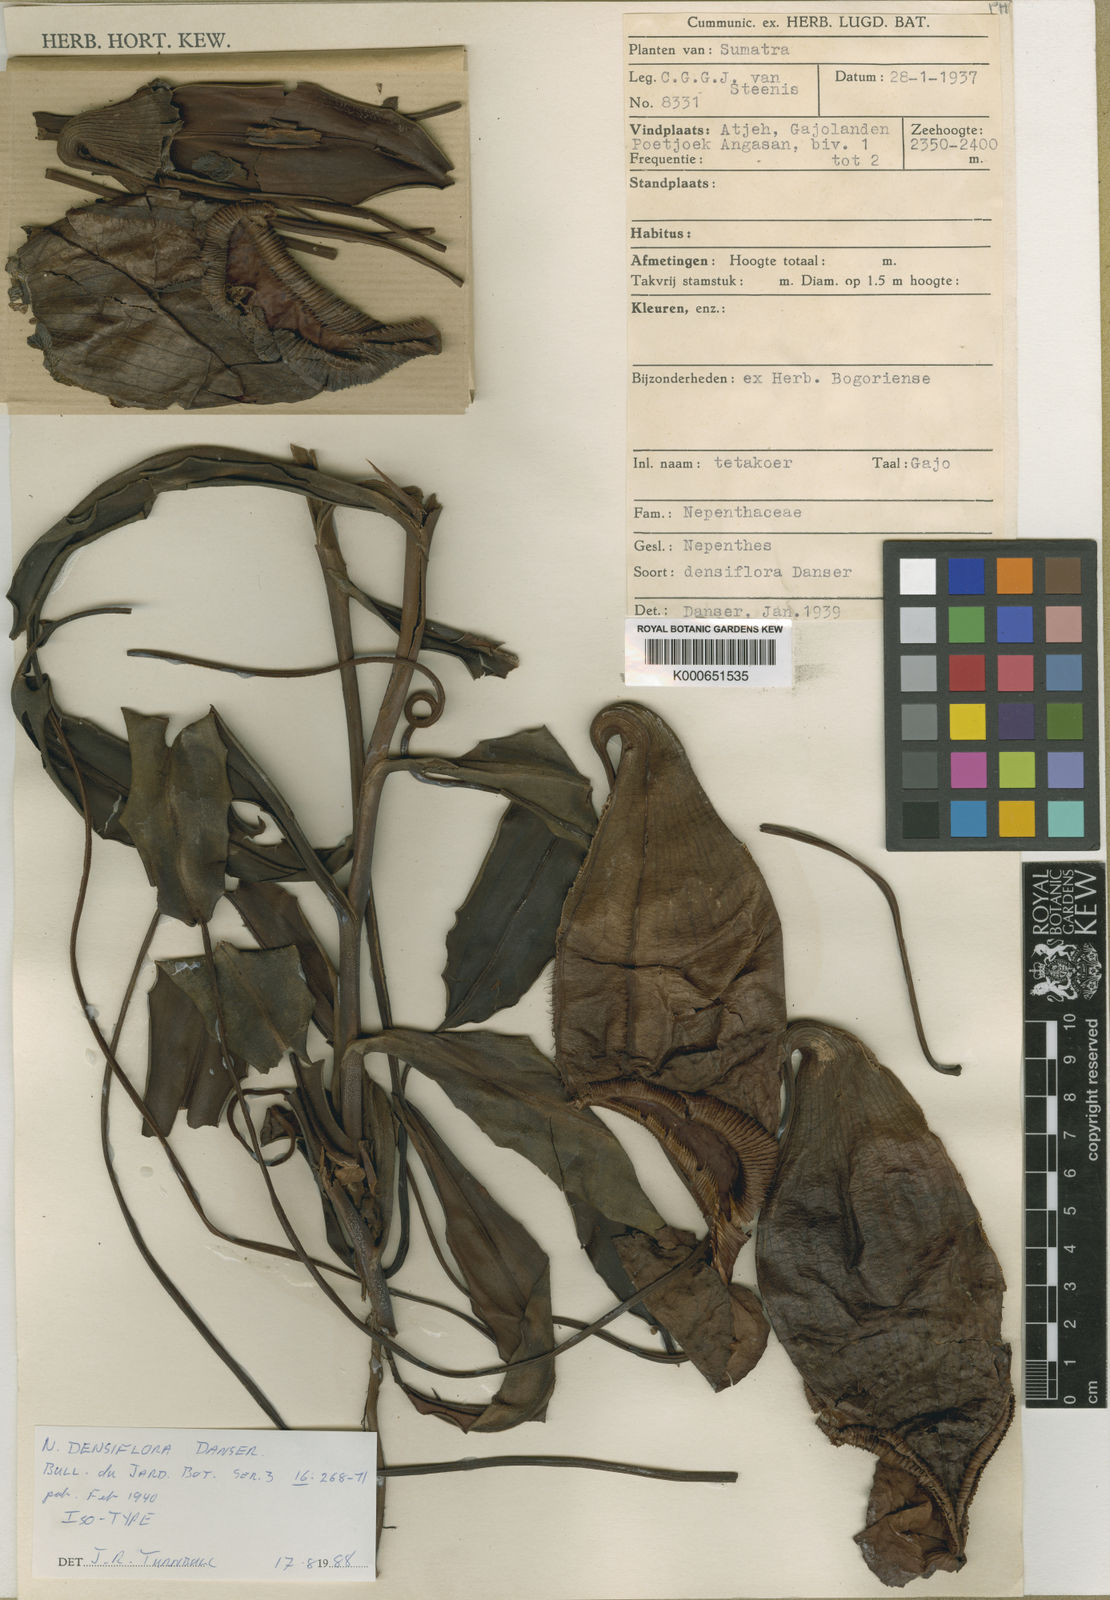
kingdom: Plantae
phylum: Tracheophyta
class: Magnoliopsida
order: Caryophyllales
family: Nepenthaceae
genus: Nepenthes
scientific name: Nepenthes densiflora
